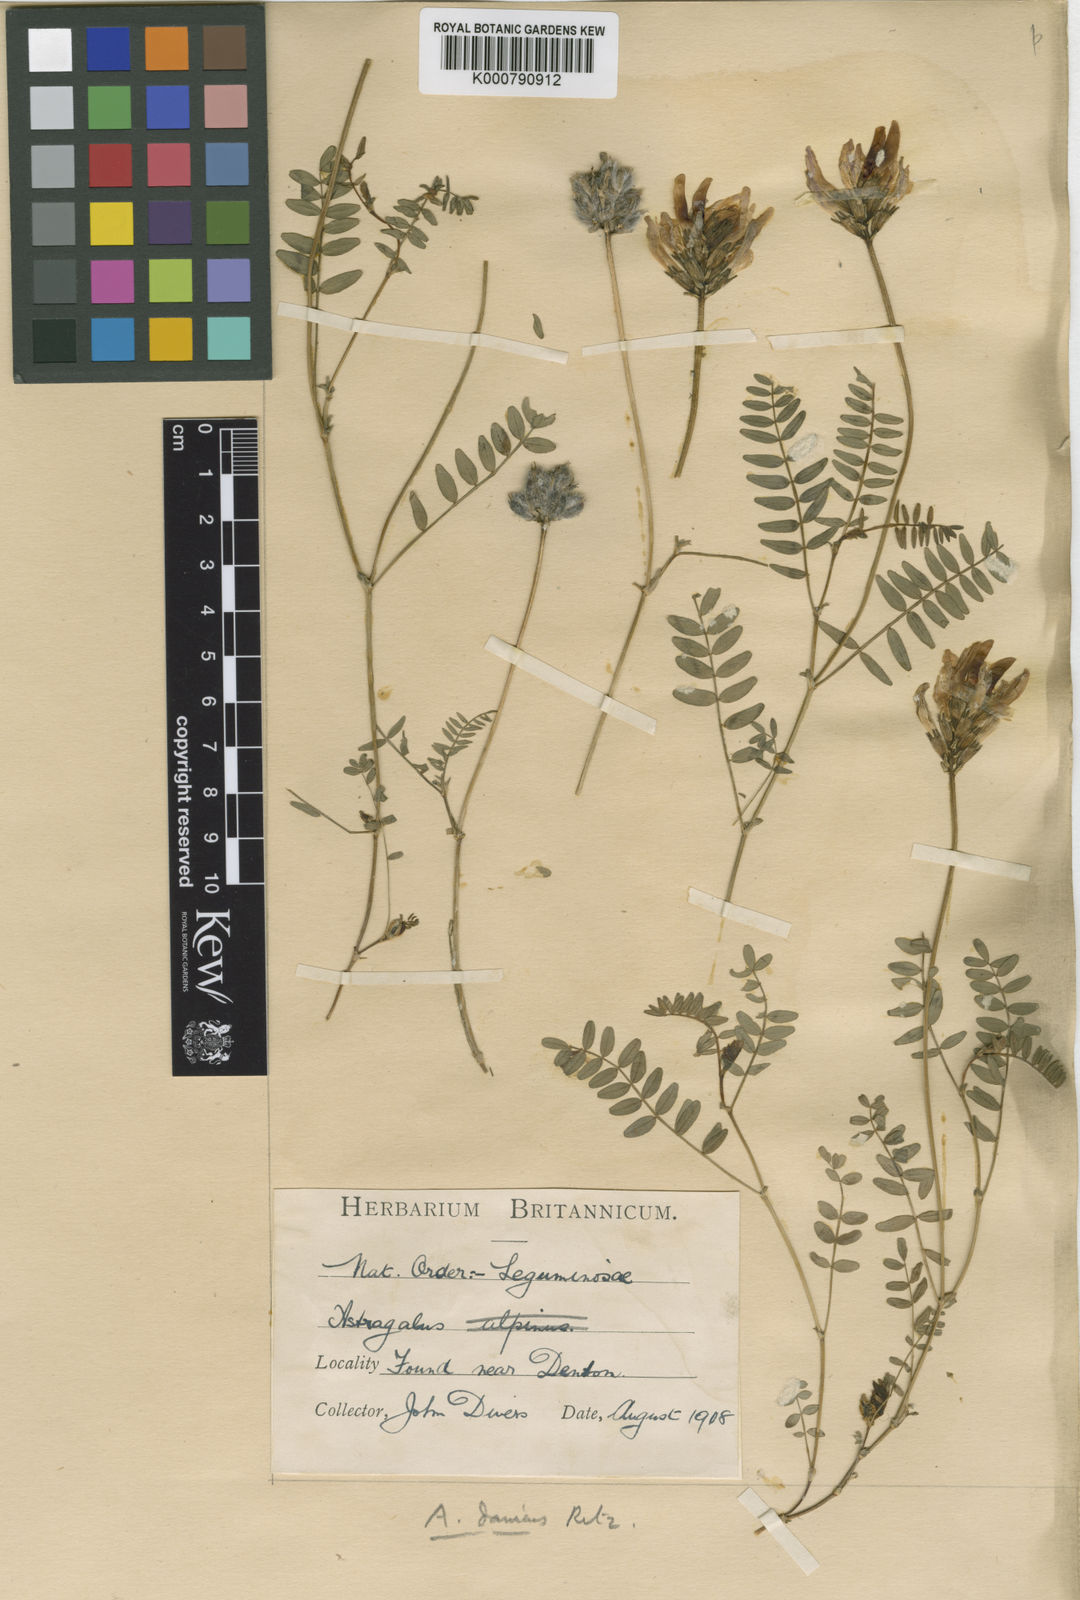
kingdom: Plantae
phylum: Tracheophyta
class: Magnoliopsida
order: Fabales
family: Fabaceae
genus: Astragalus
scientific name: Astragalus danicus
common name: Purple milk-vetch
